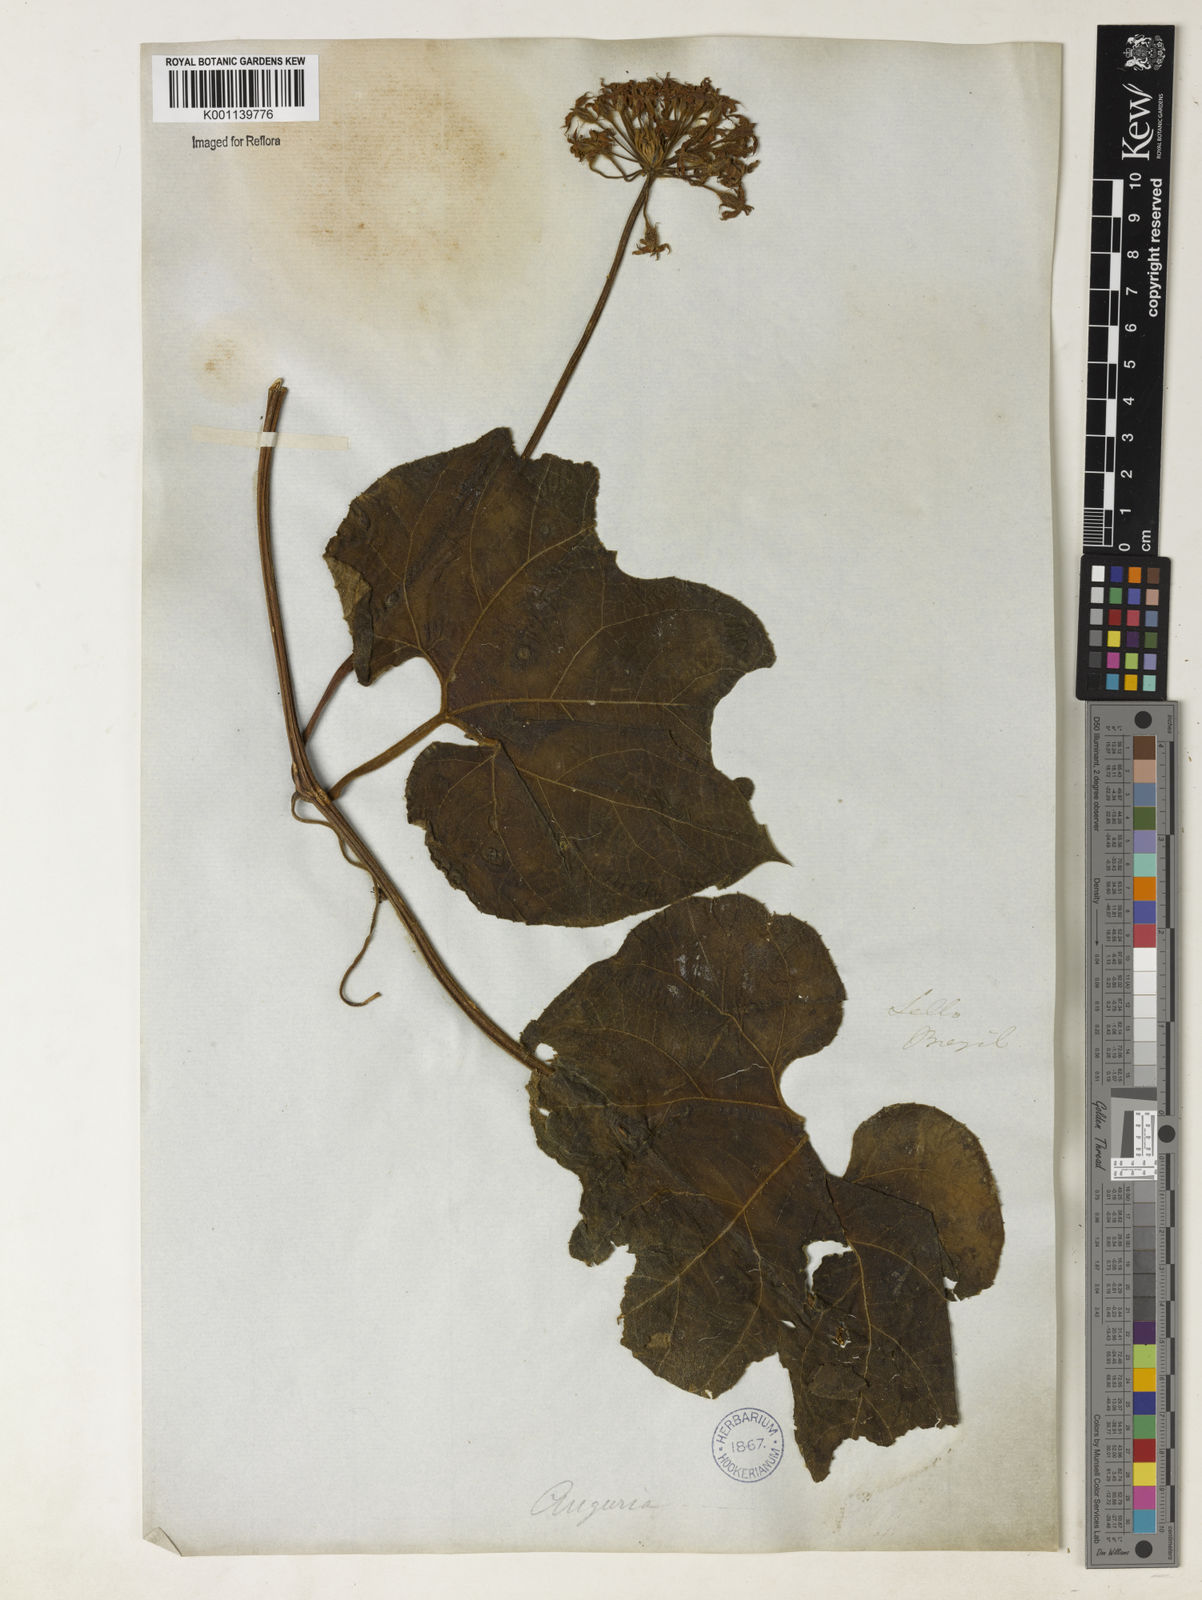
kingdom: Plantae
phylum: Tracheophyta
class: Magnoliopsida
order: Cucurbitales
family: Cucurbitaceae
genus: Gurania
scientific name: Gurania subumbellata
